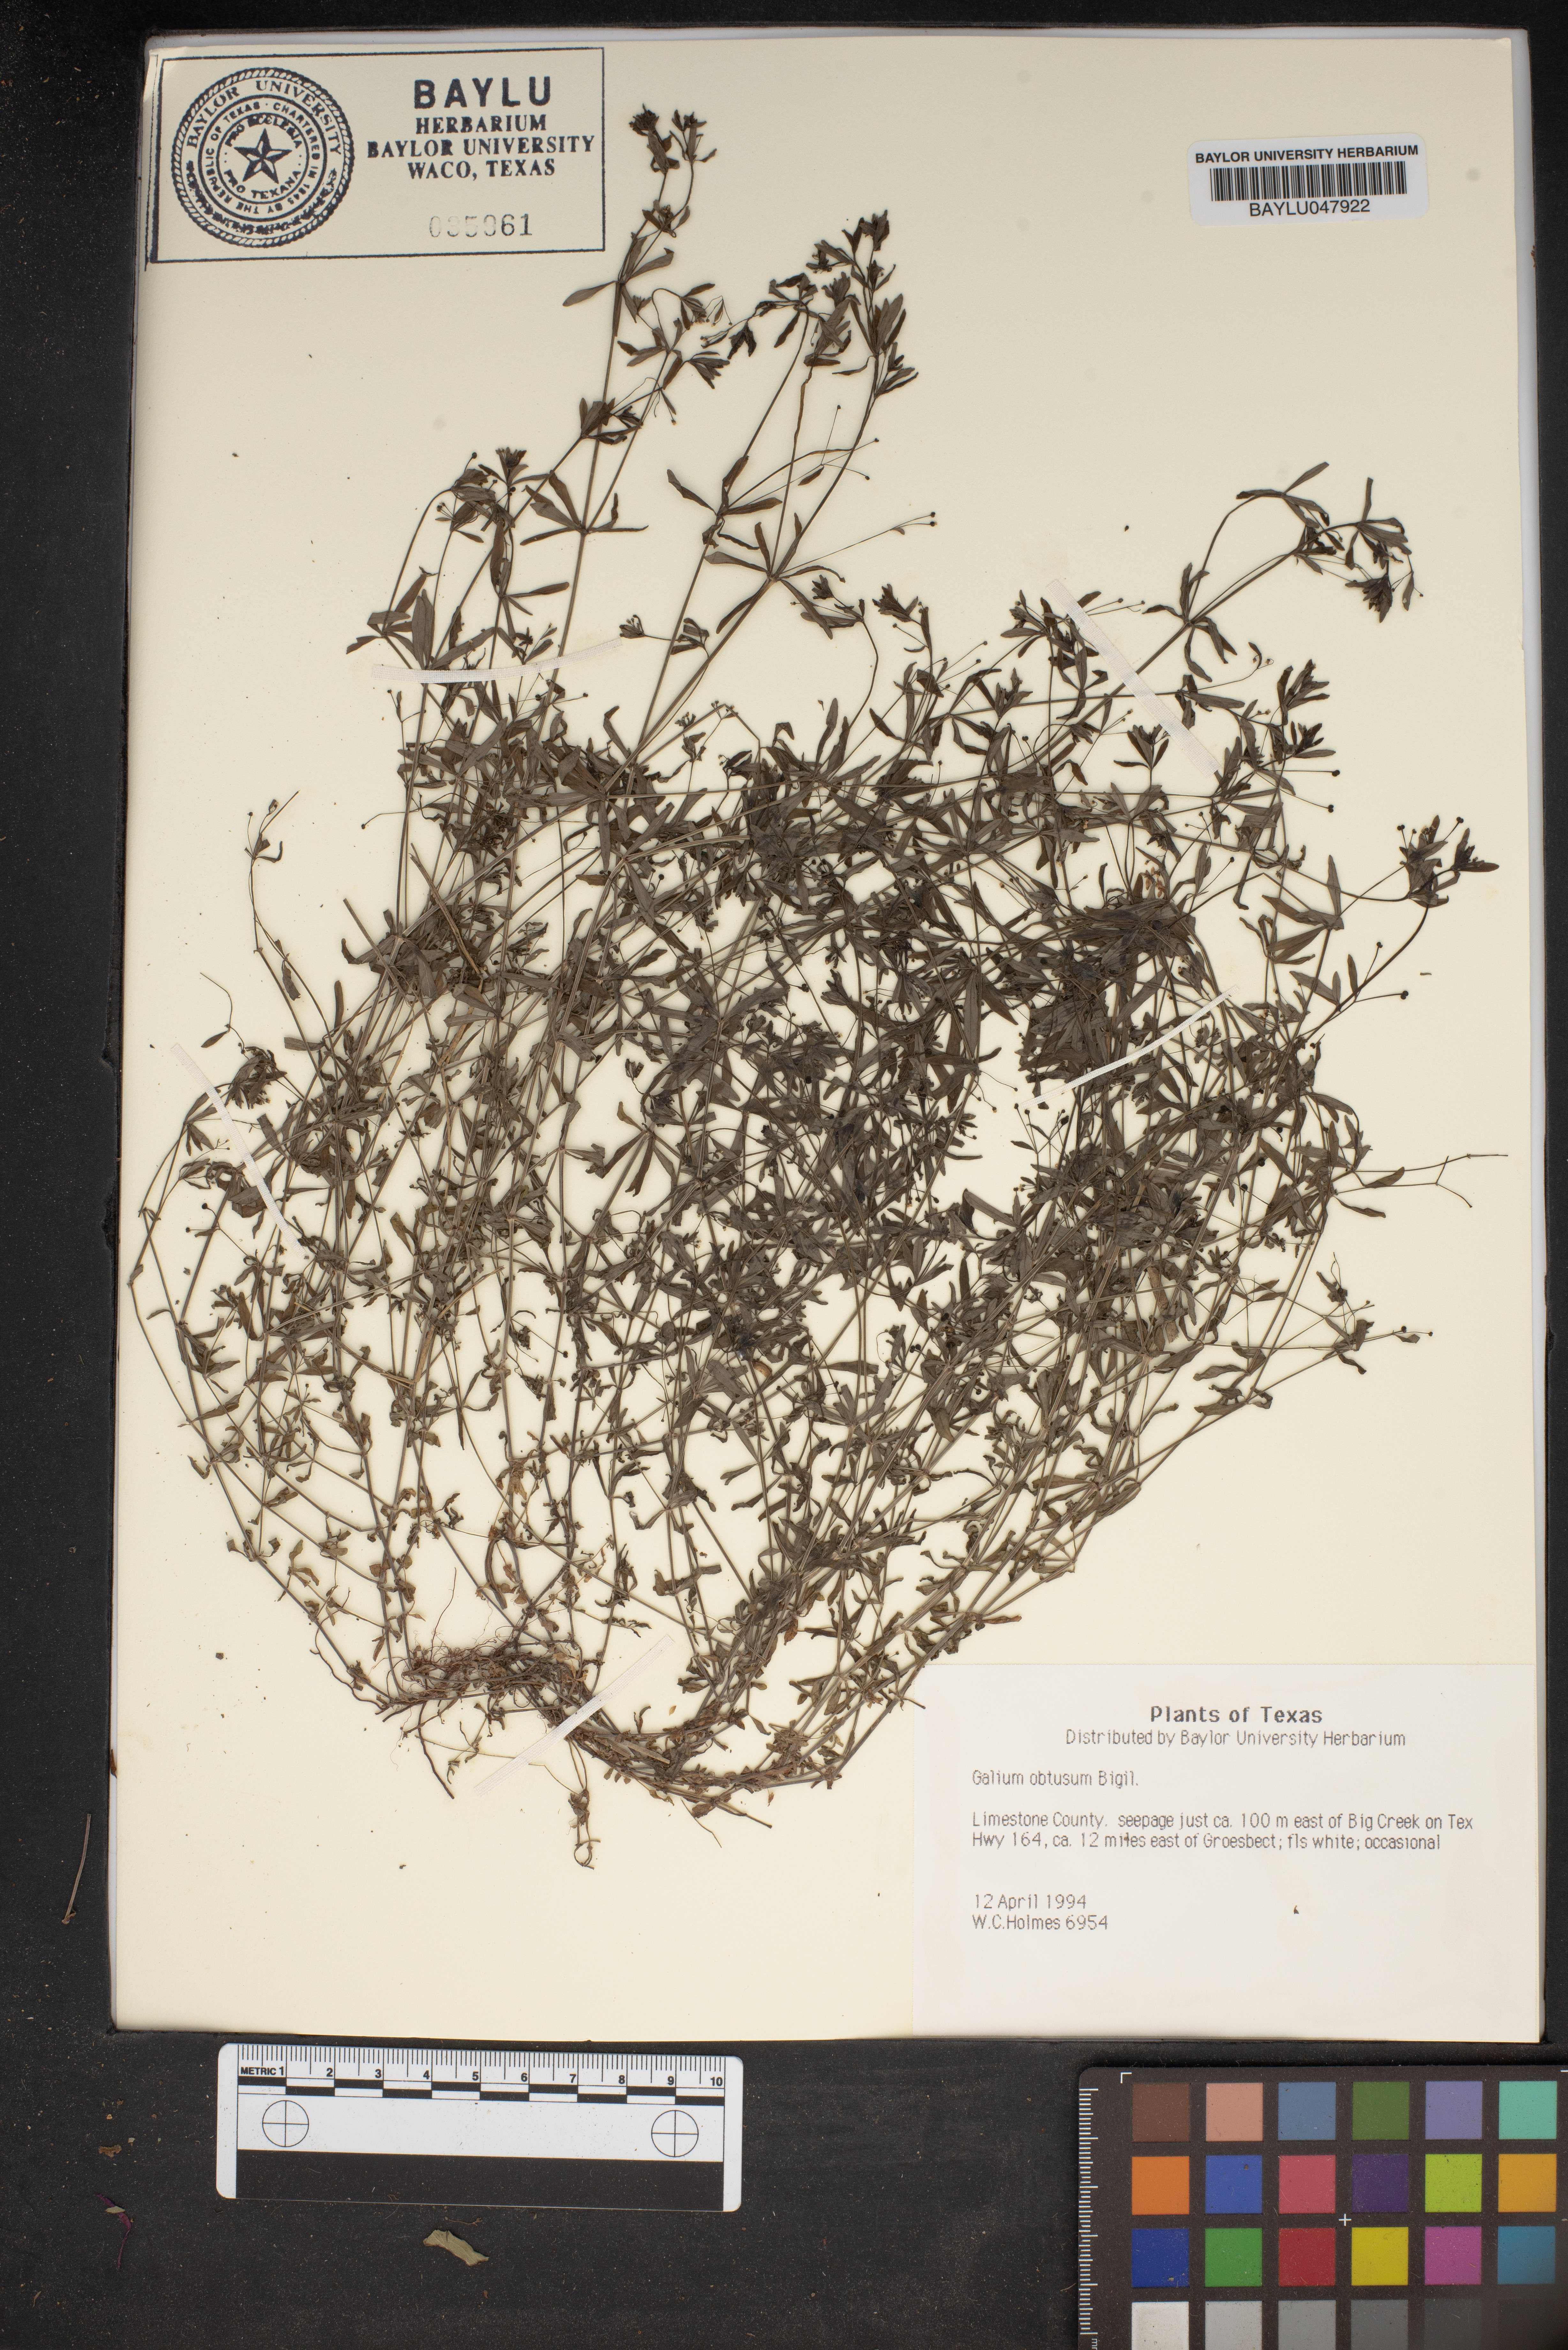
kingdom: Plantae
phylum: Tracheophyta
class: Magnoliopsida
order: Gentianales
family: Rubiaceae
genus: Galium
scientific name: Galium obtusum
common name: Blunt-leaved bedstraw
